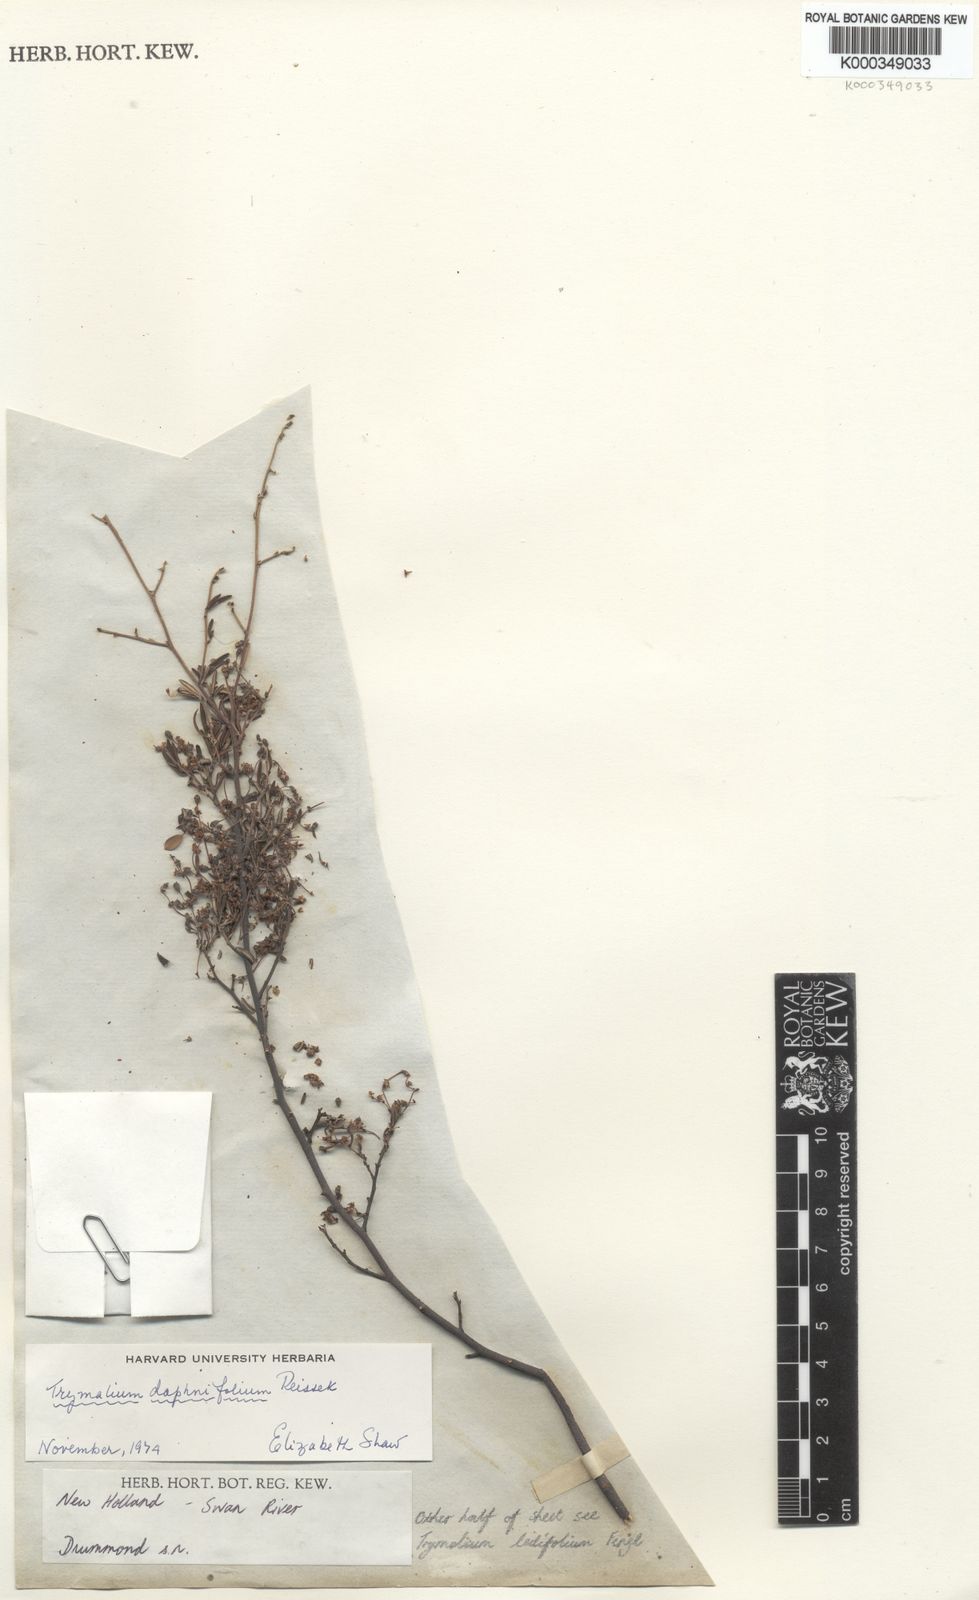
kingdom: Plantae
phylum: Tracheophyta
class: Magnoliopsida
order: Rosales
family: Rhamnaceae
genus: Trymalium
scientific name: Trymalium daphnifolium
